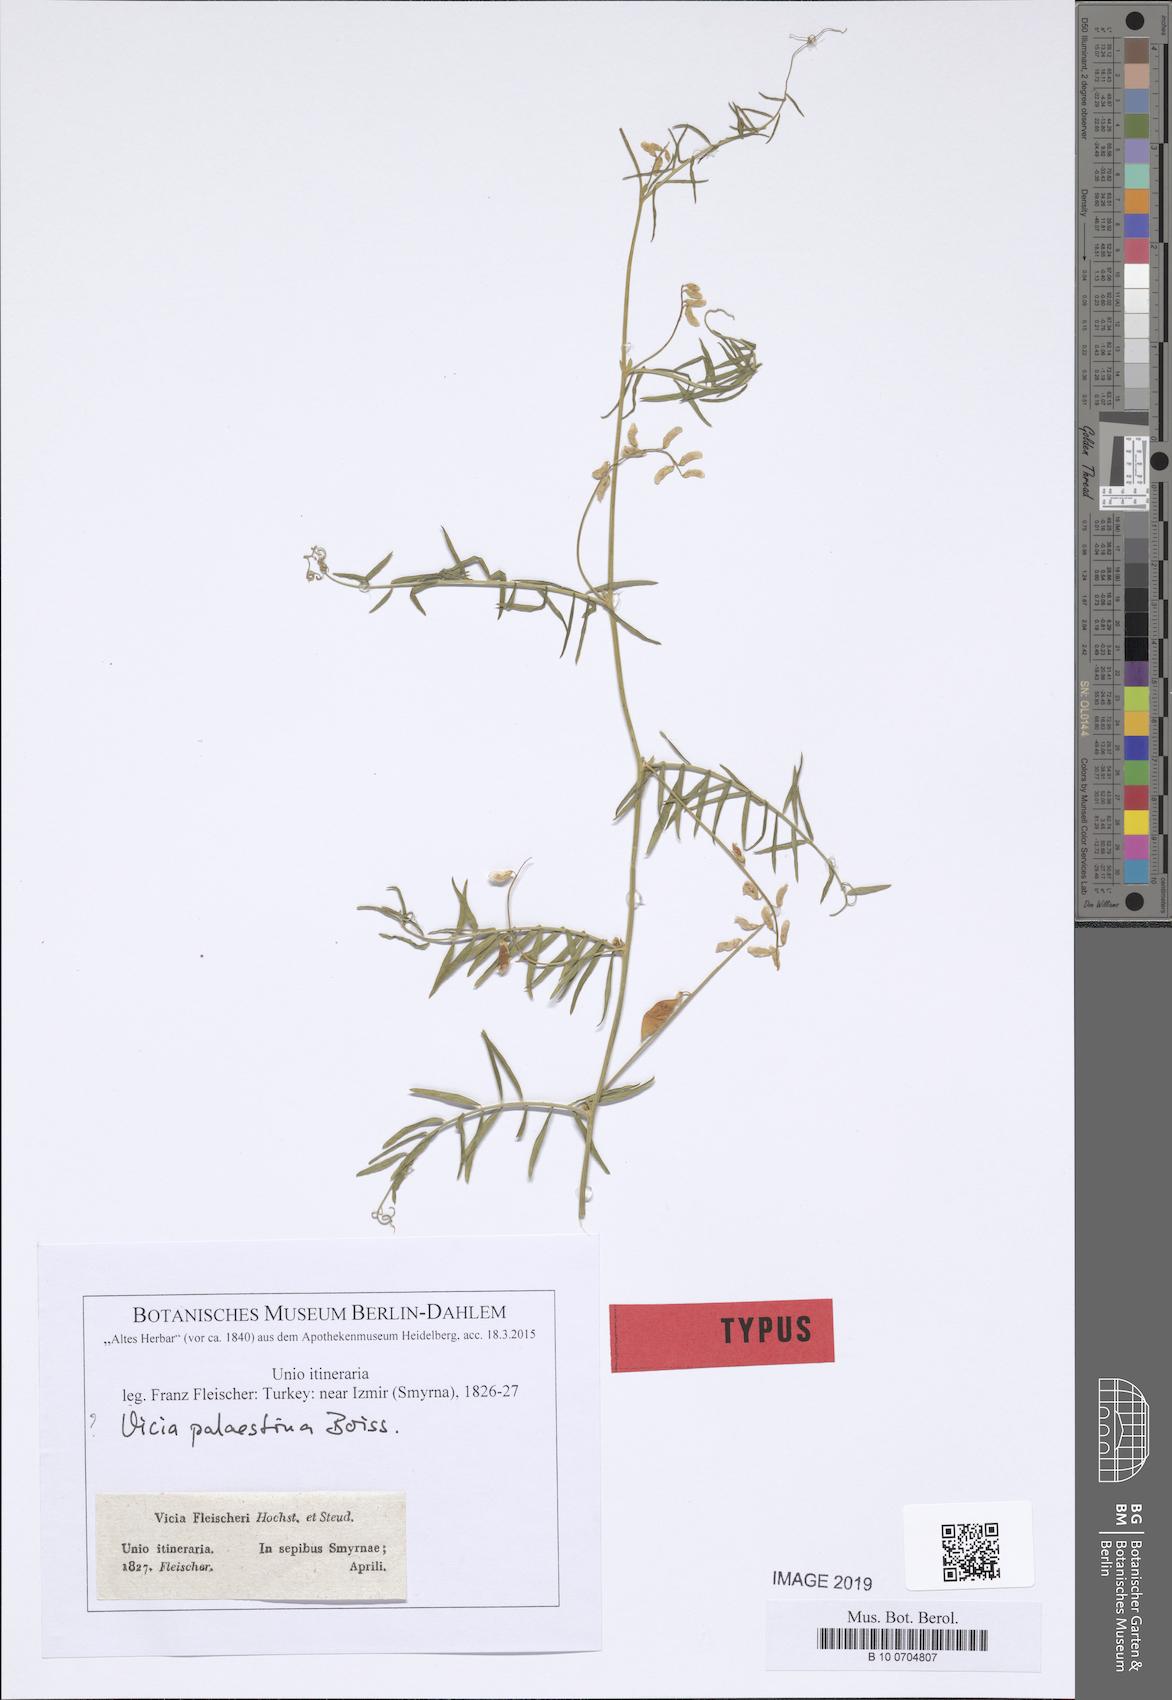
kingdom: Plantae
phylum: Tracheophyta
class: Magnoliopsida
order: Fabales
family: Fabaceae
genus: Vicia
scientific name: Vicia palaestina
